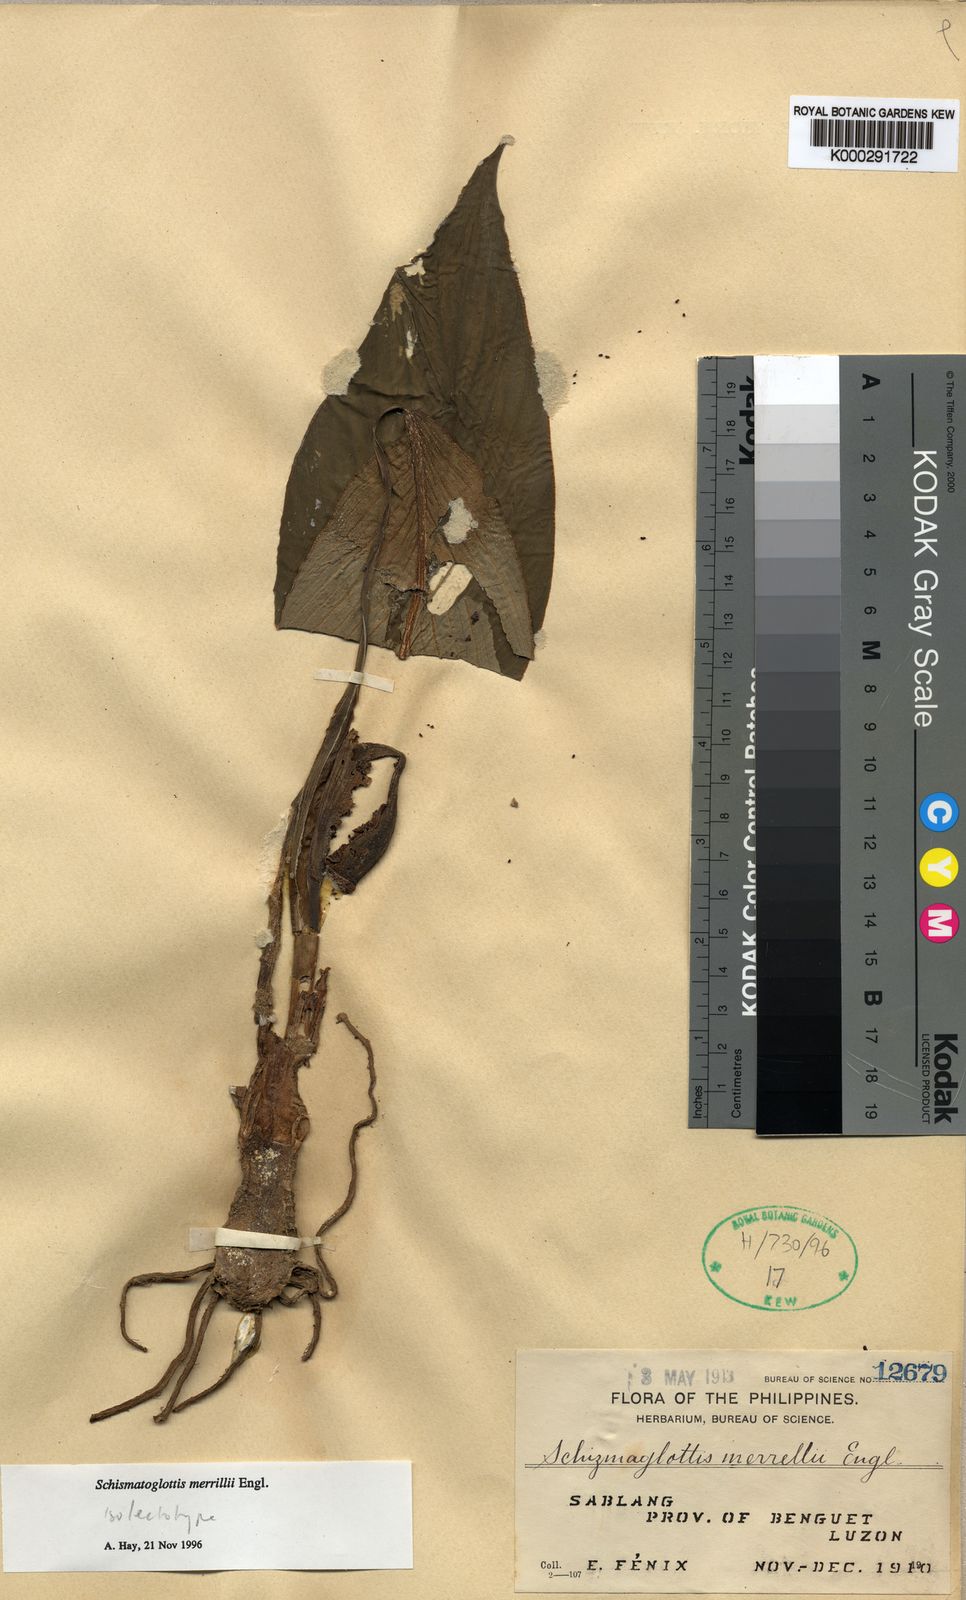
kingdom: Plantae
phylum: Tracheophyta
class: Liliopsida
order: Alismatales
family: Araceae
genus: Schismatoglottis
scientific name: Schismatoglottis merrillii
